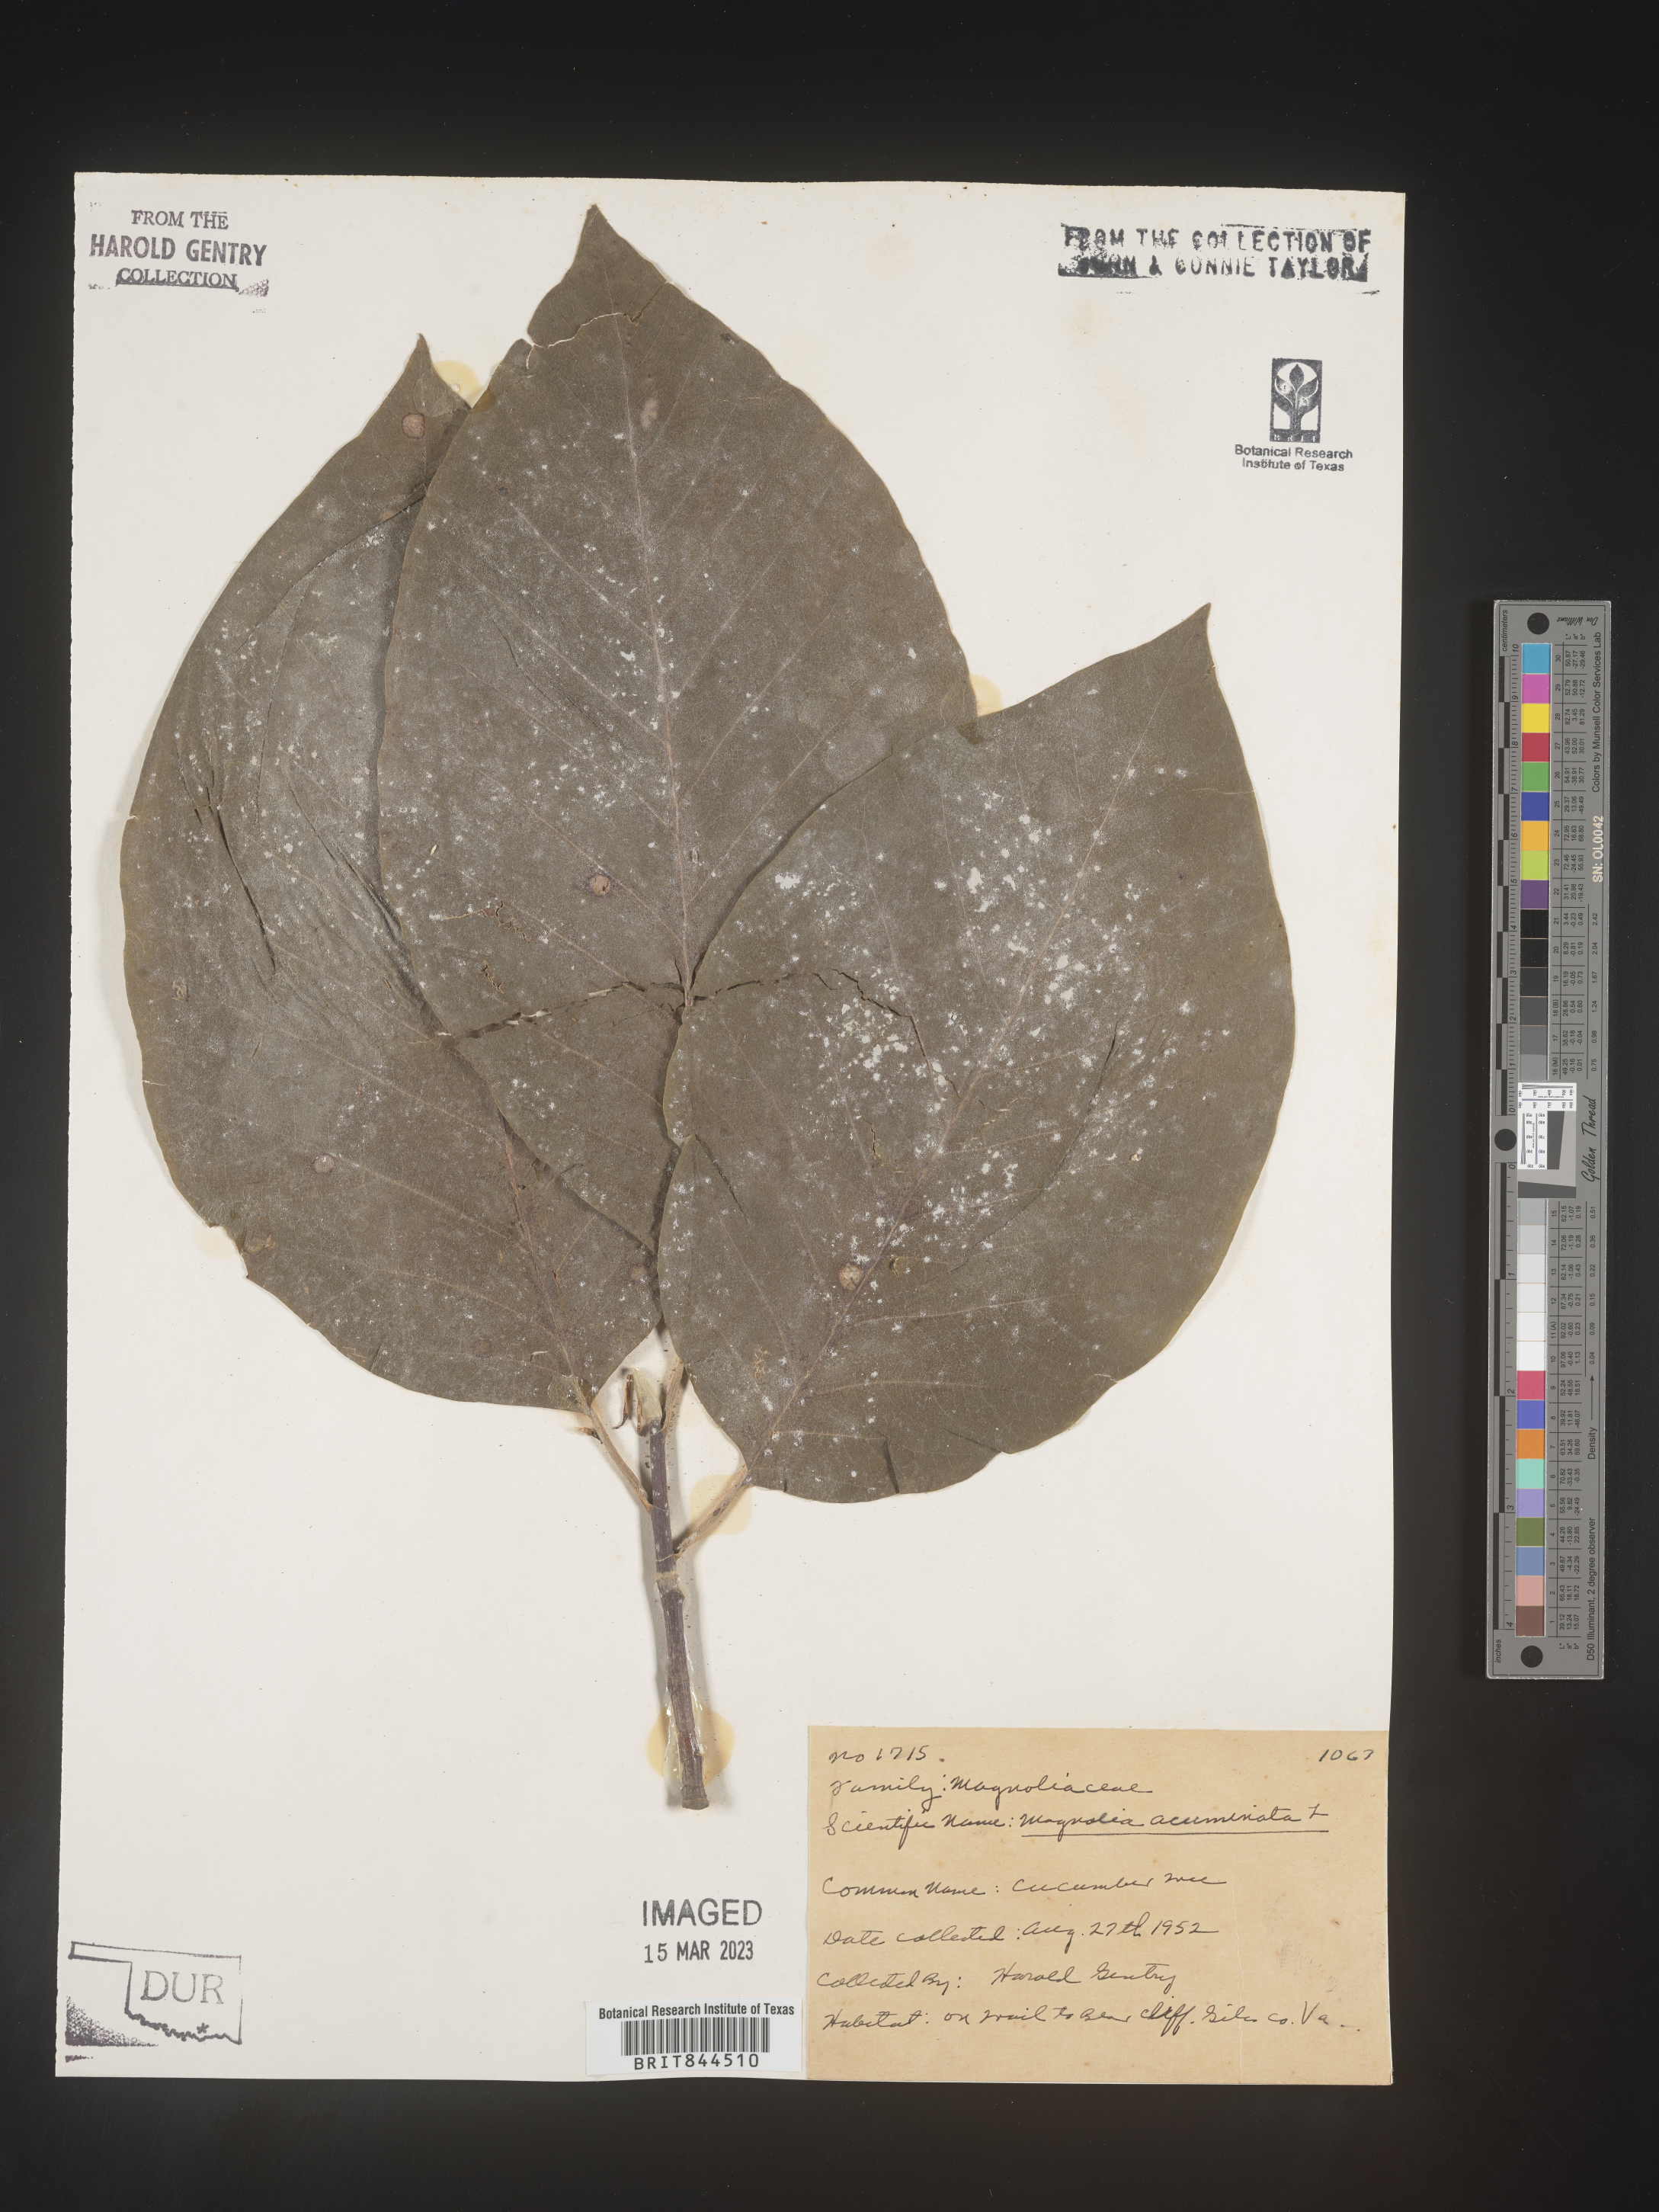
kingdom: Plantae
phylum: Tracheophyta
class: Magnoliopsida
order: Magnoliales
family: Magnoliaceae
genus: Magnolia
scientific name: Magnolia acuminata
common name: Cucumber magnolia
